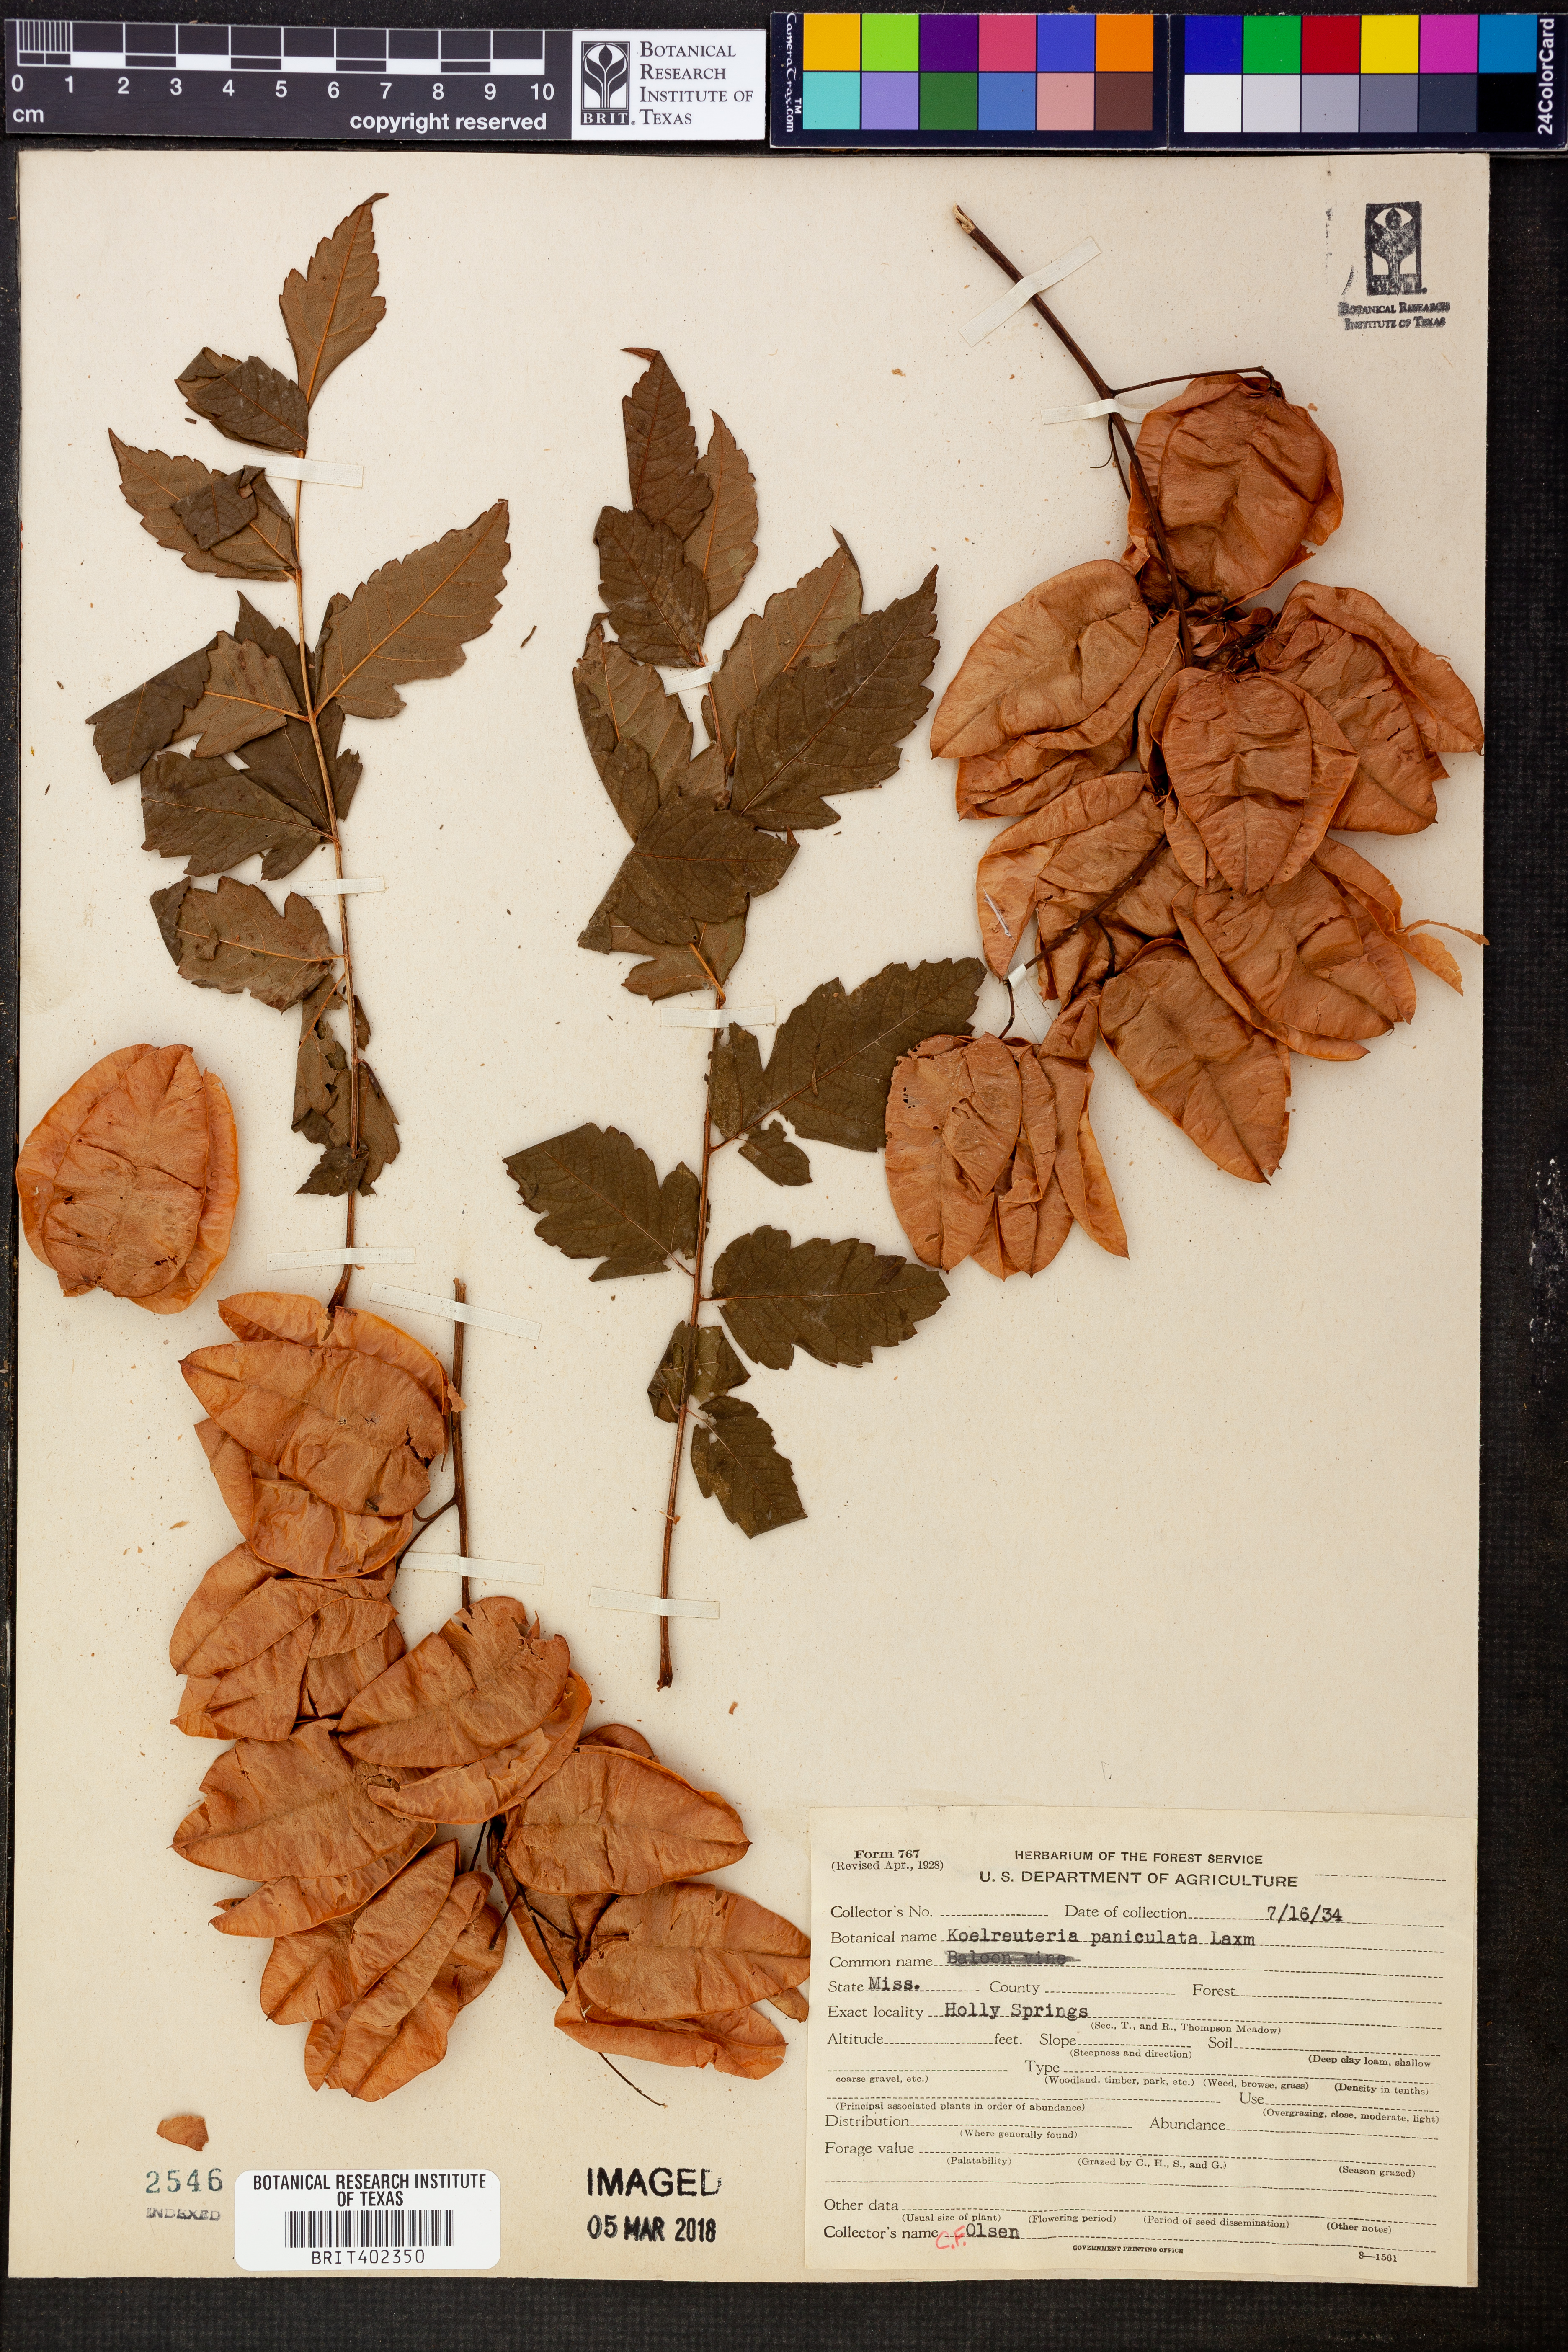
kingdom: Plantae
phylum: Tracheophyta
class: Magnoliopsida
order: Sapindales
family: Sapindaceae
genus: Koelreuteria
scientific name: Koelreuteria paniculata
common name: Pride-of-india
